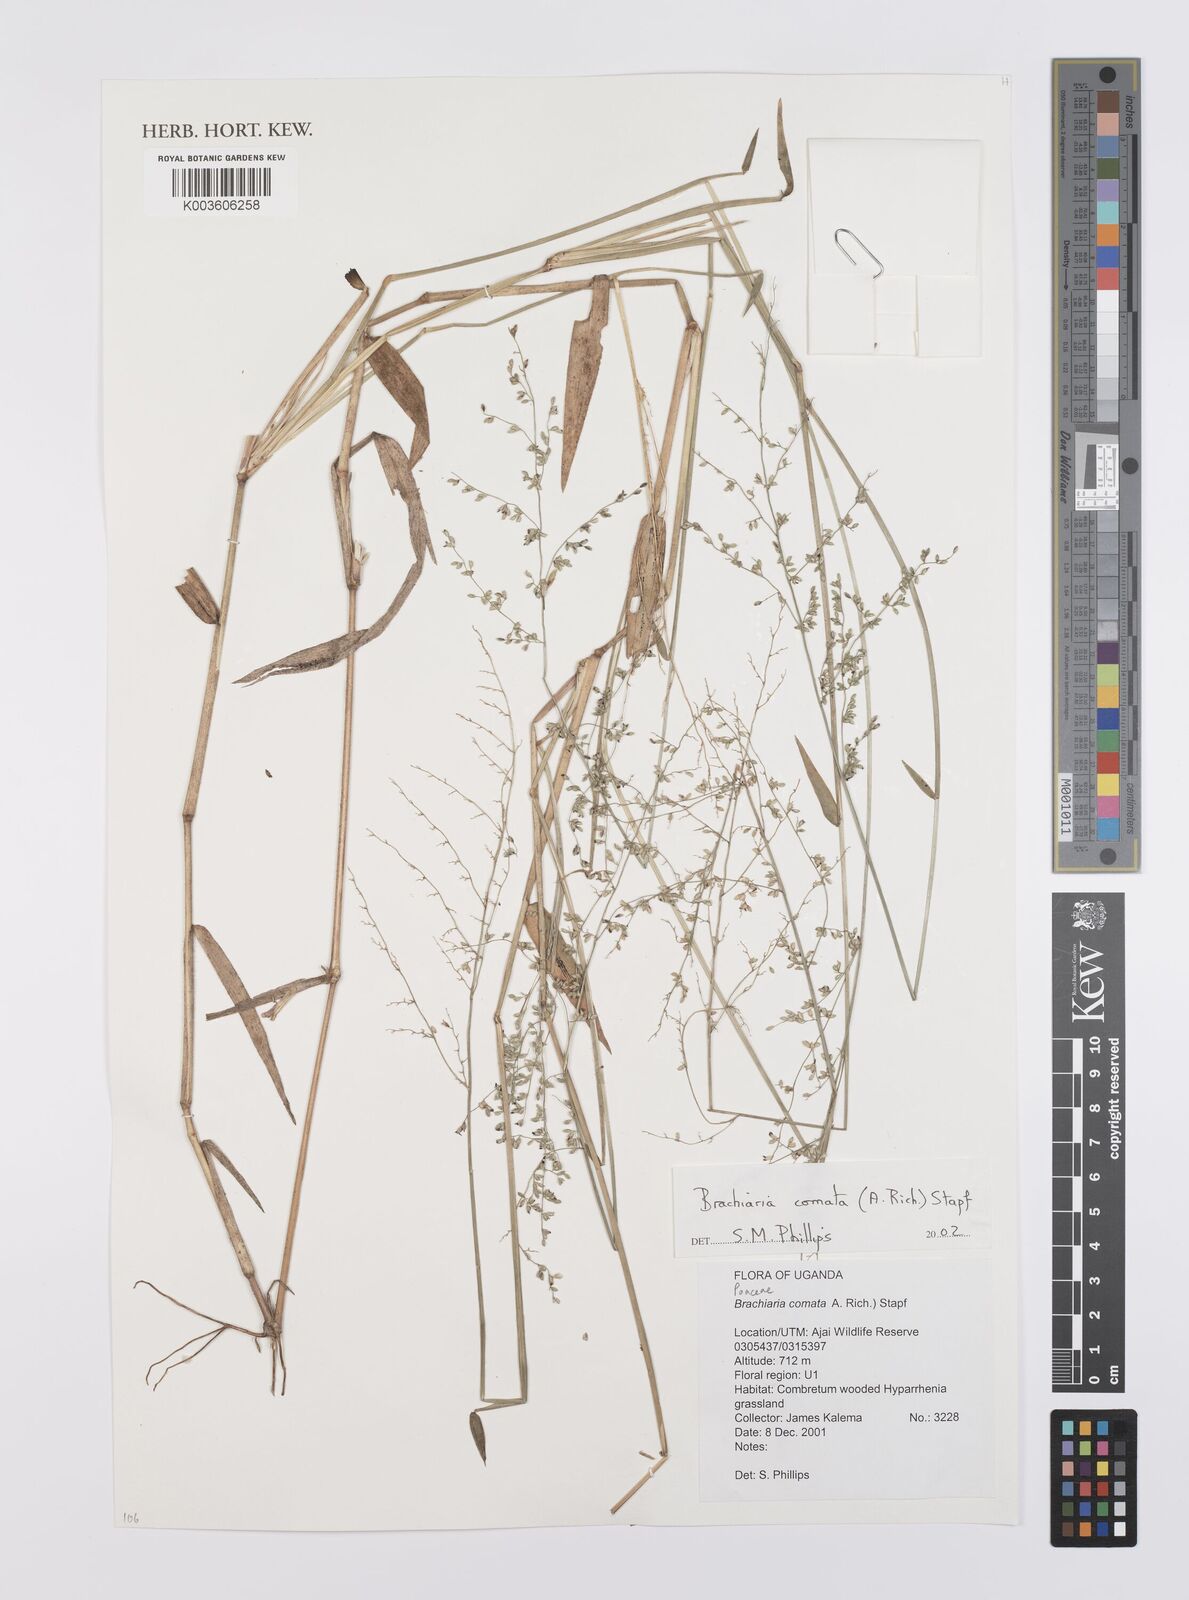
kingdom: Plantae
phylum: Tracheophyta
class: Liliopsida
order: Poales
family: Poaceae
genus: Urochloa
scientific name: Urochloa comata
